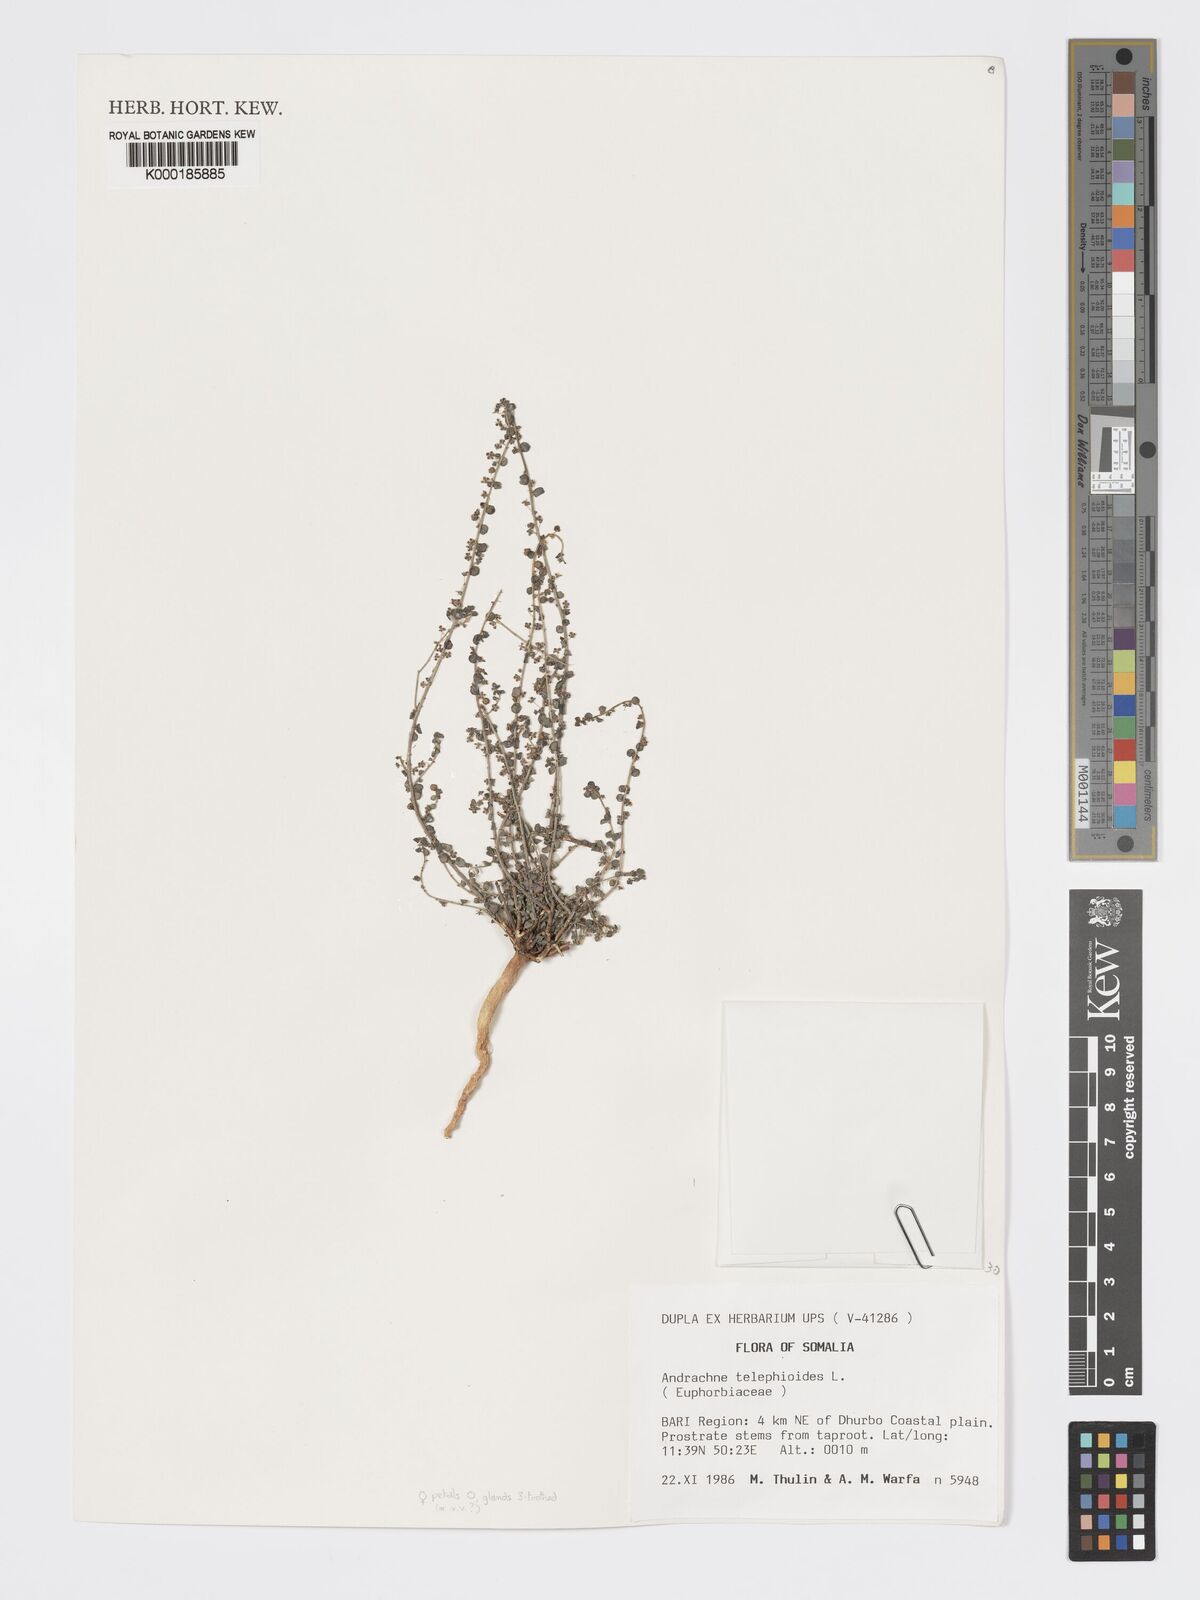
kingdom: Plantae
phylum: Tracheophyta
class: Magnoliopsida
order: Malpighiales
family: Phyllanthaceae
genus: Andrachne
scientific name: Andrachne telephioides
